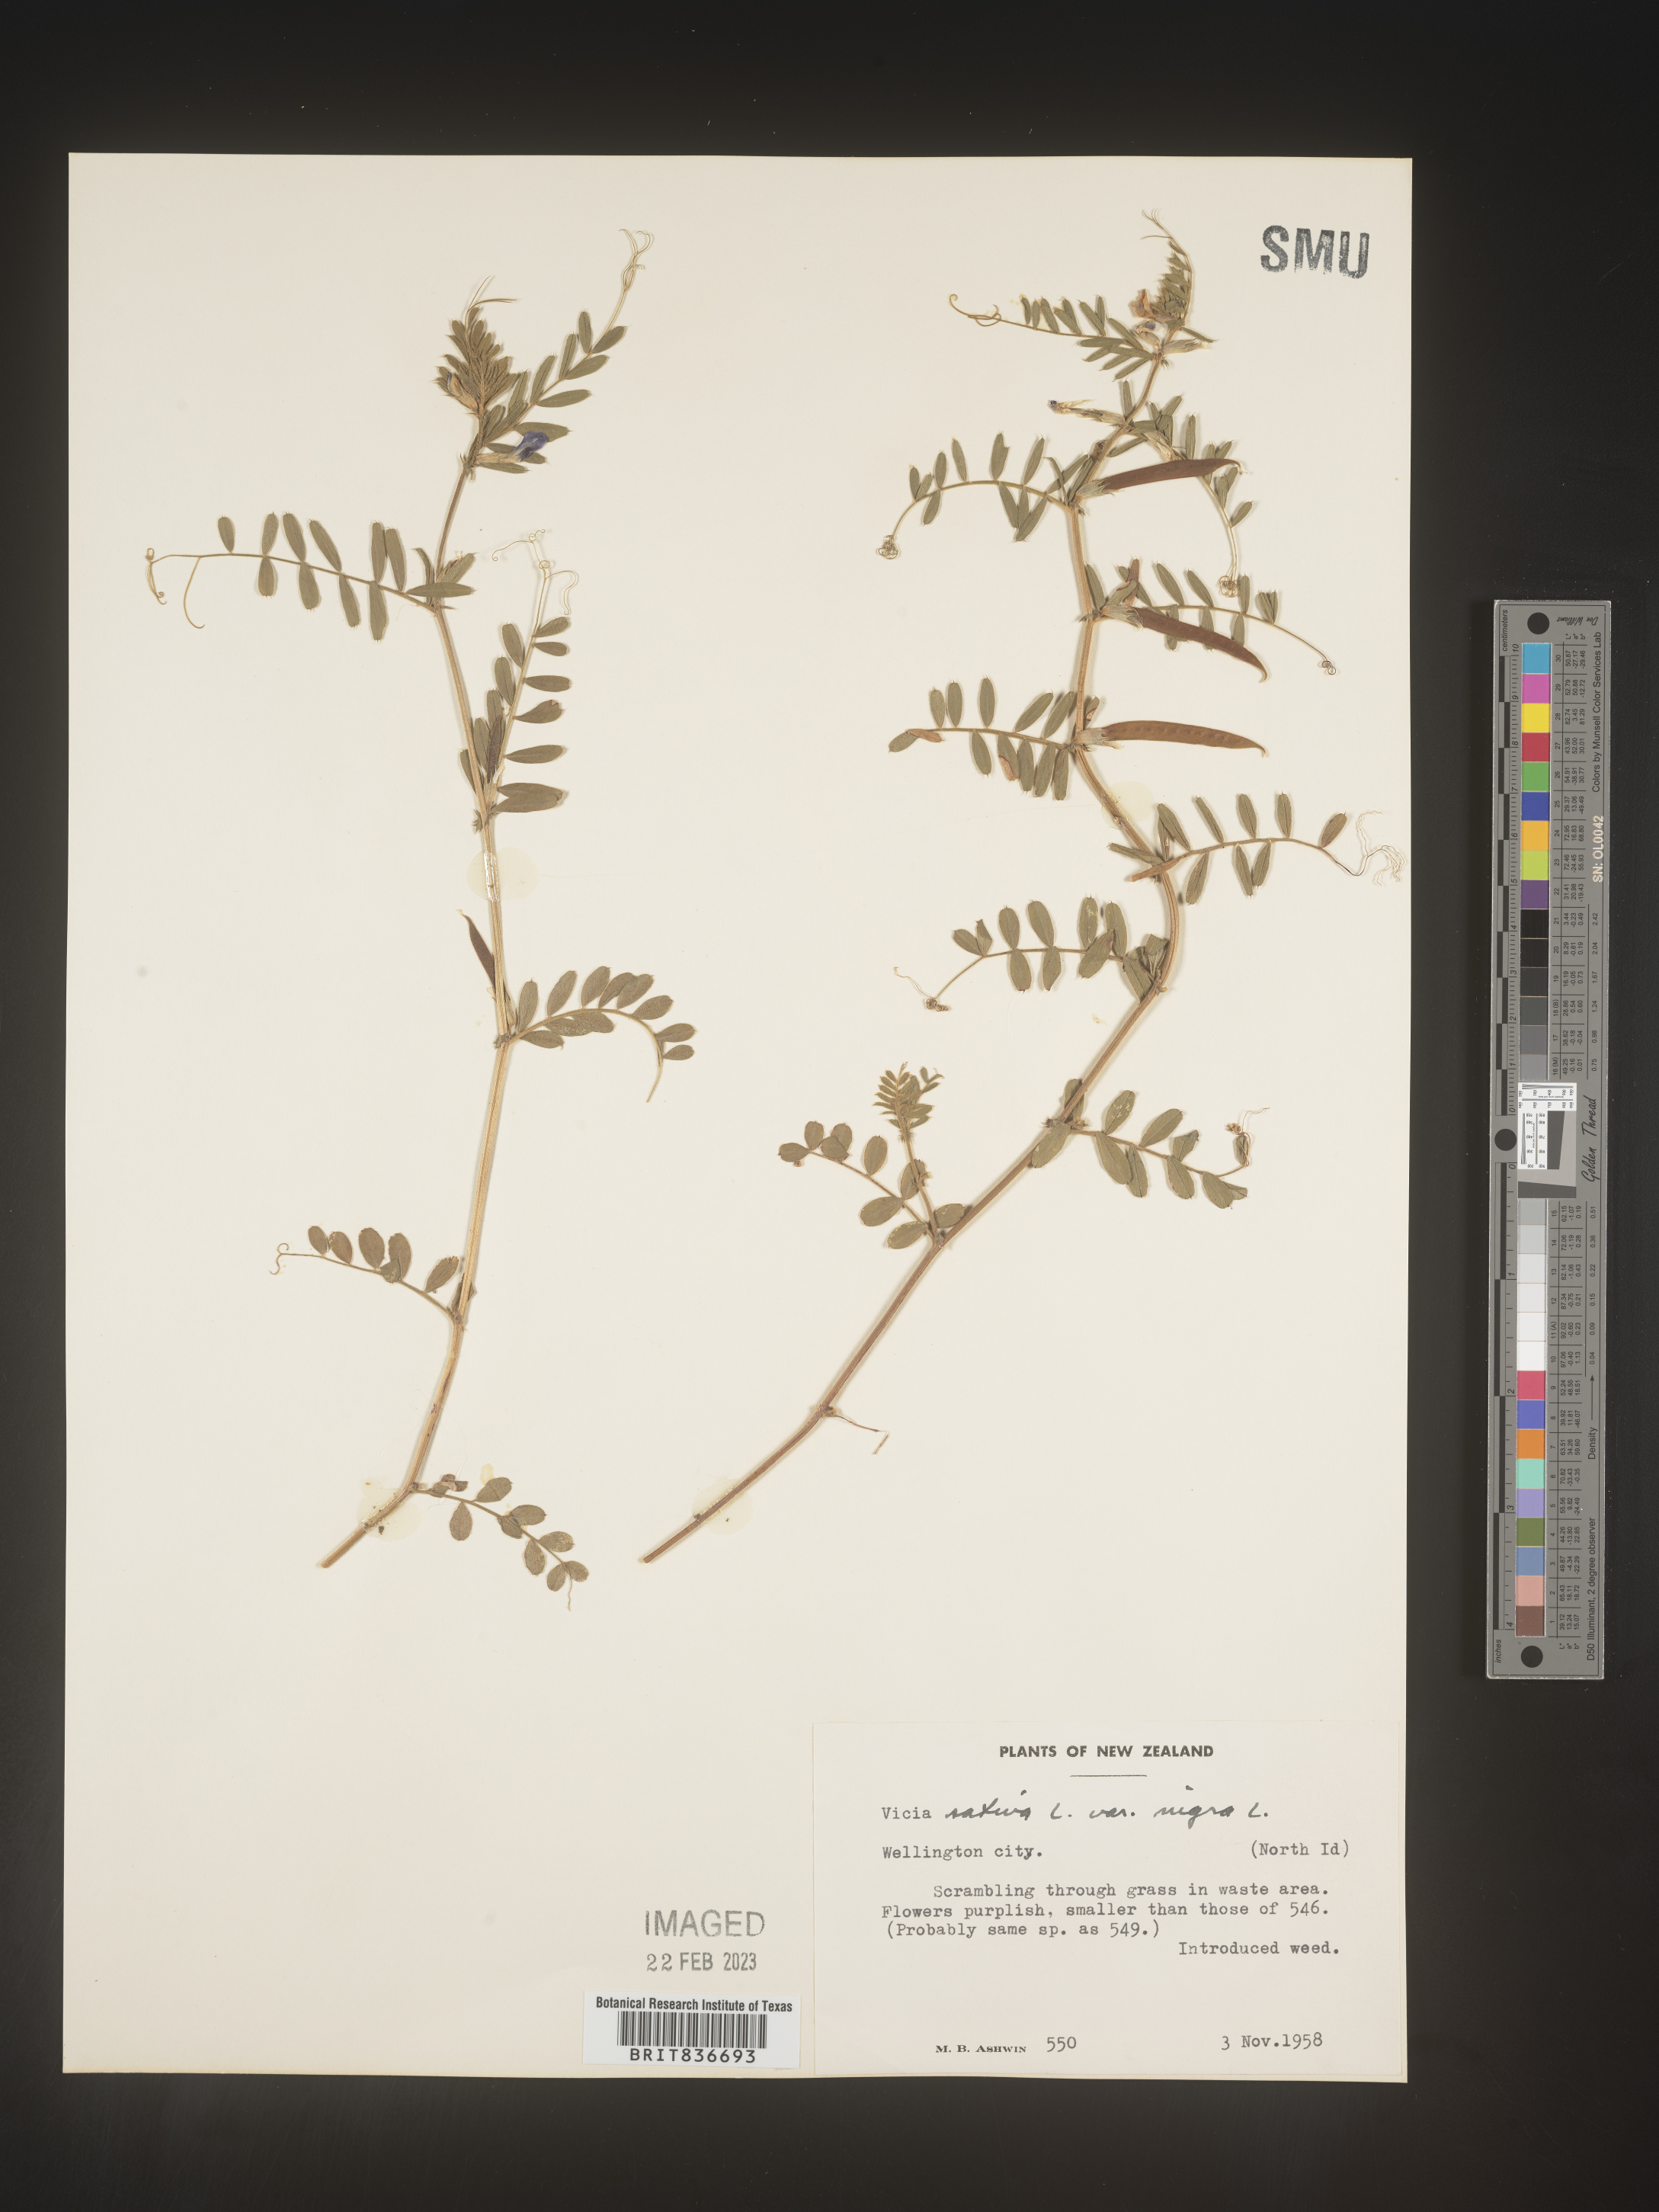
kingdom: Plantae
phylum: Tracheophyta
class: Magnoliopsida
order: Fabales
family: Fabaceae
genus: Vicia
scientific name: Vicia
